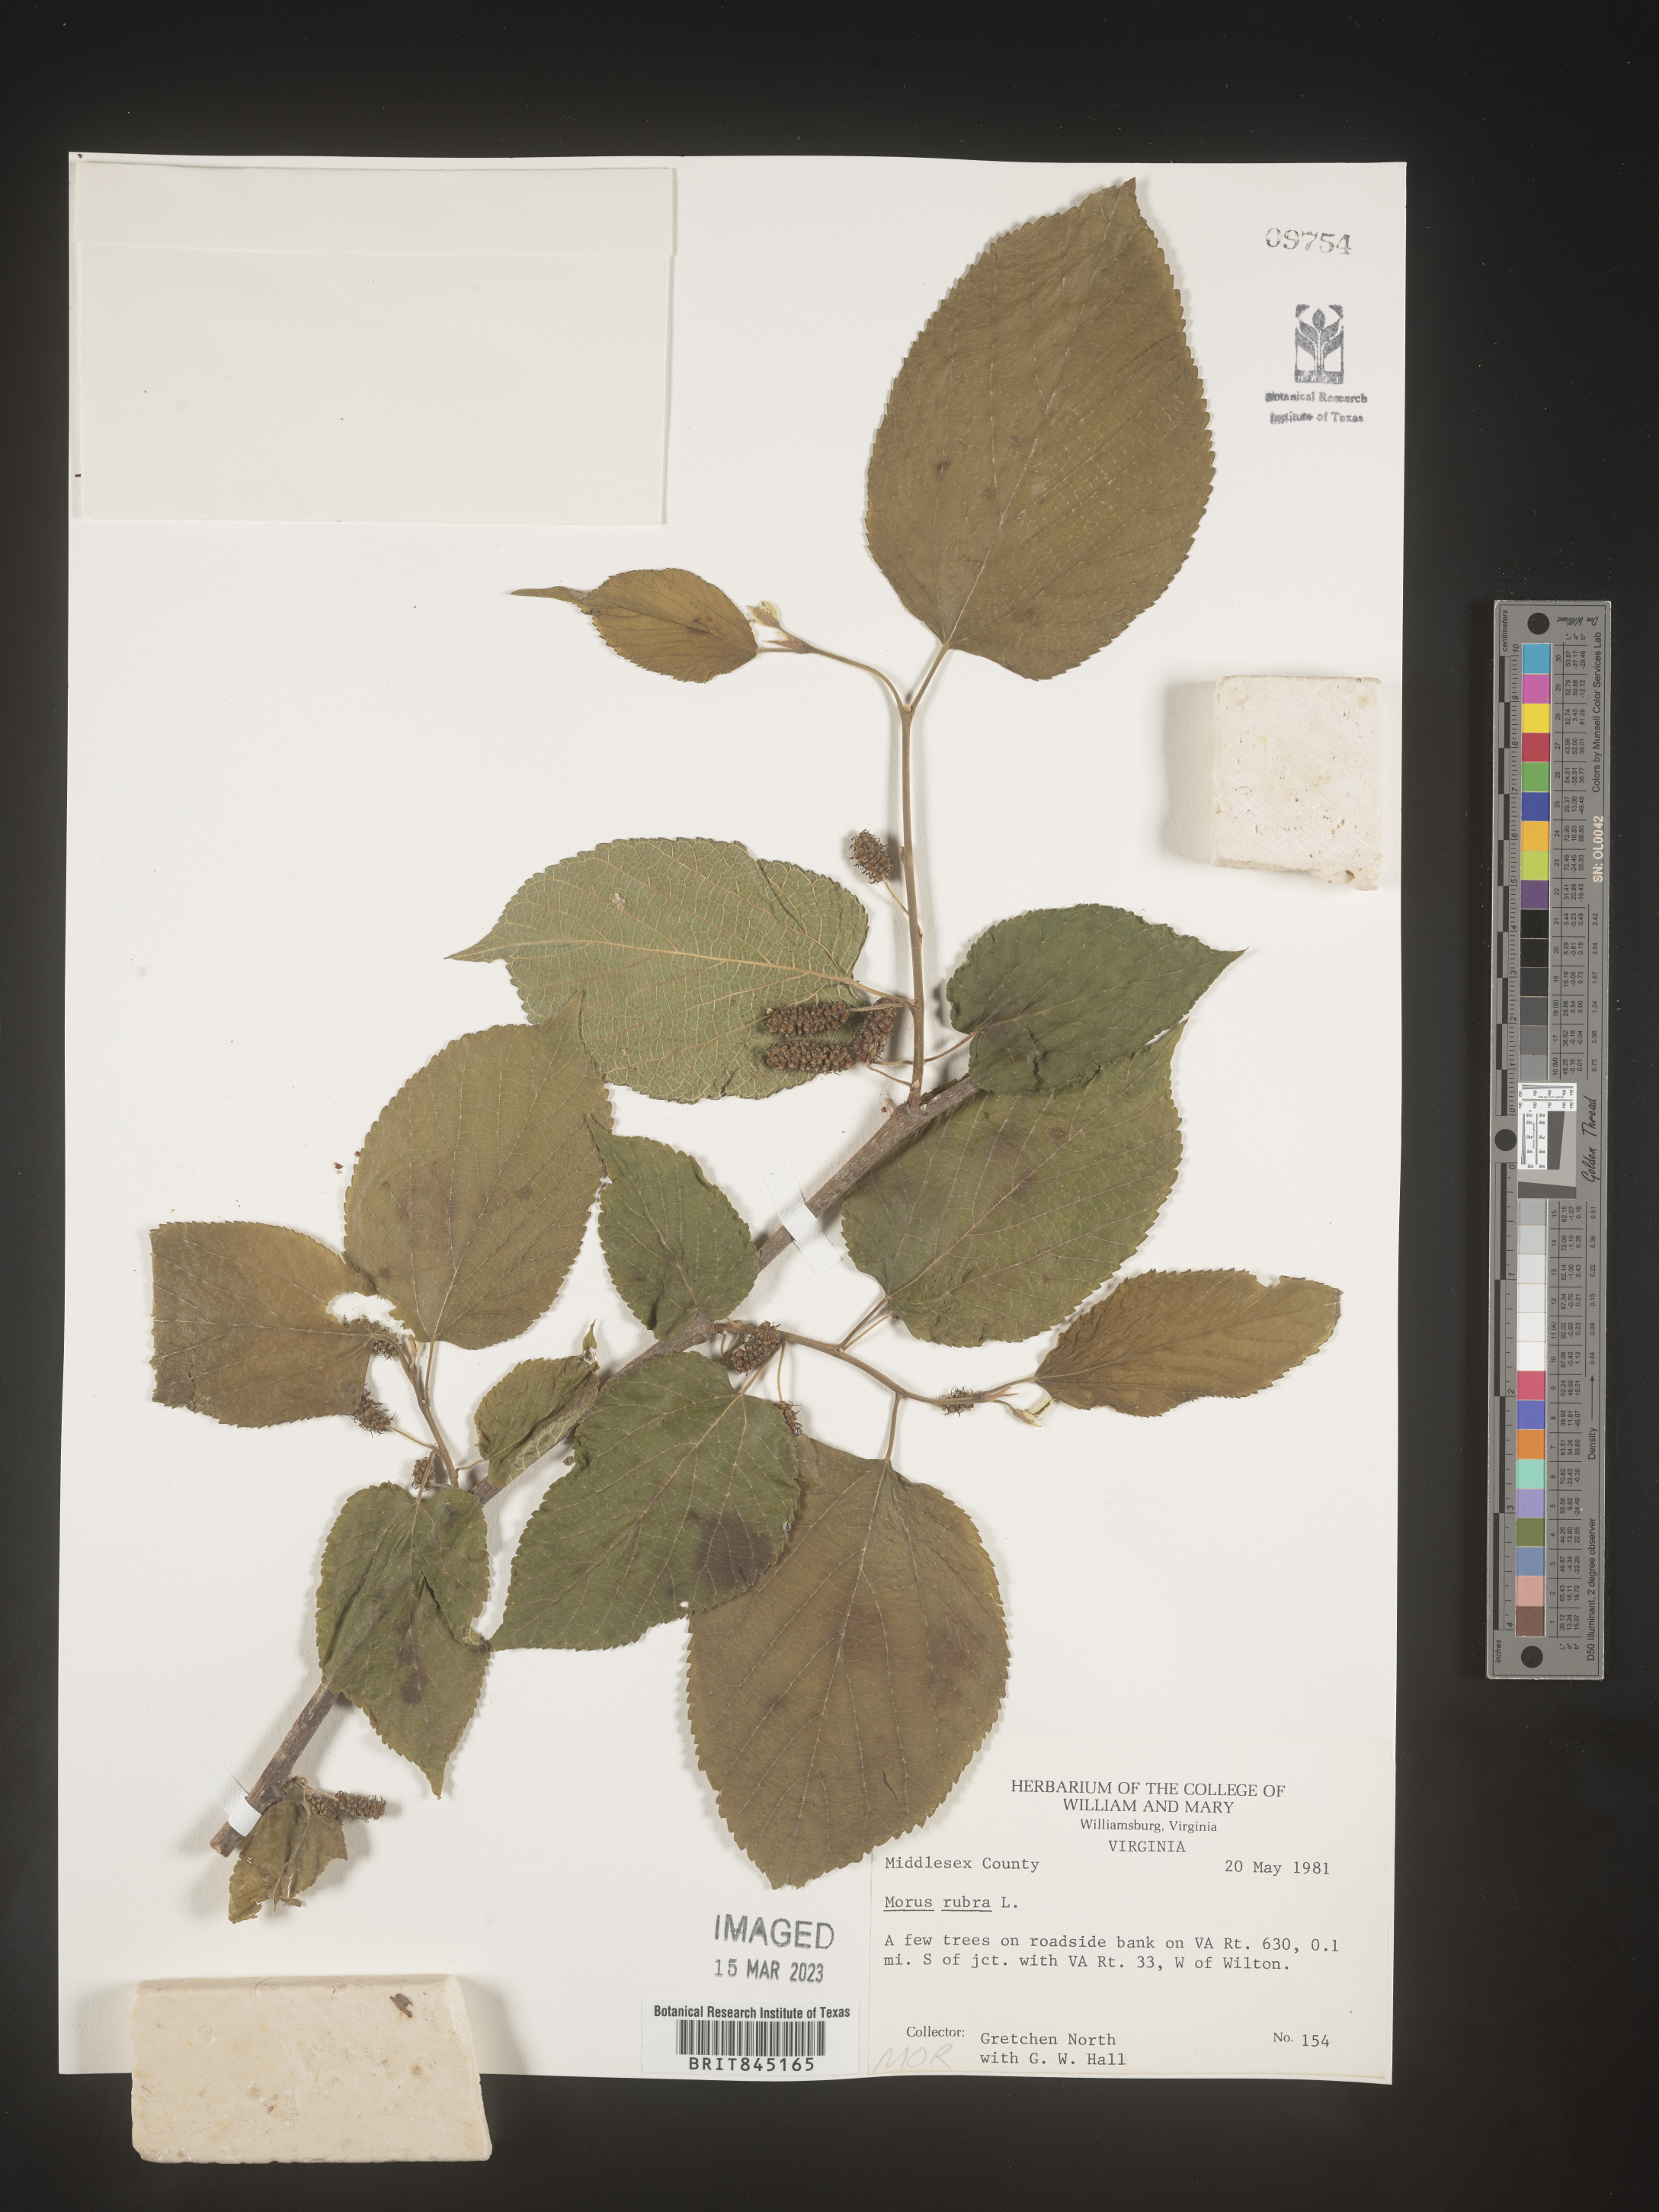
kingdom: Plantae
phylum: Tracheophyta
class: Magnoliopsida
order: Rosales
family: Moraceae
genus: Morus
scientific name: Morus rubra
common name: Red mulberry
